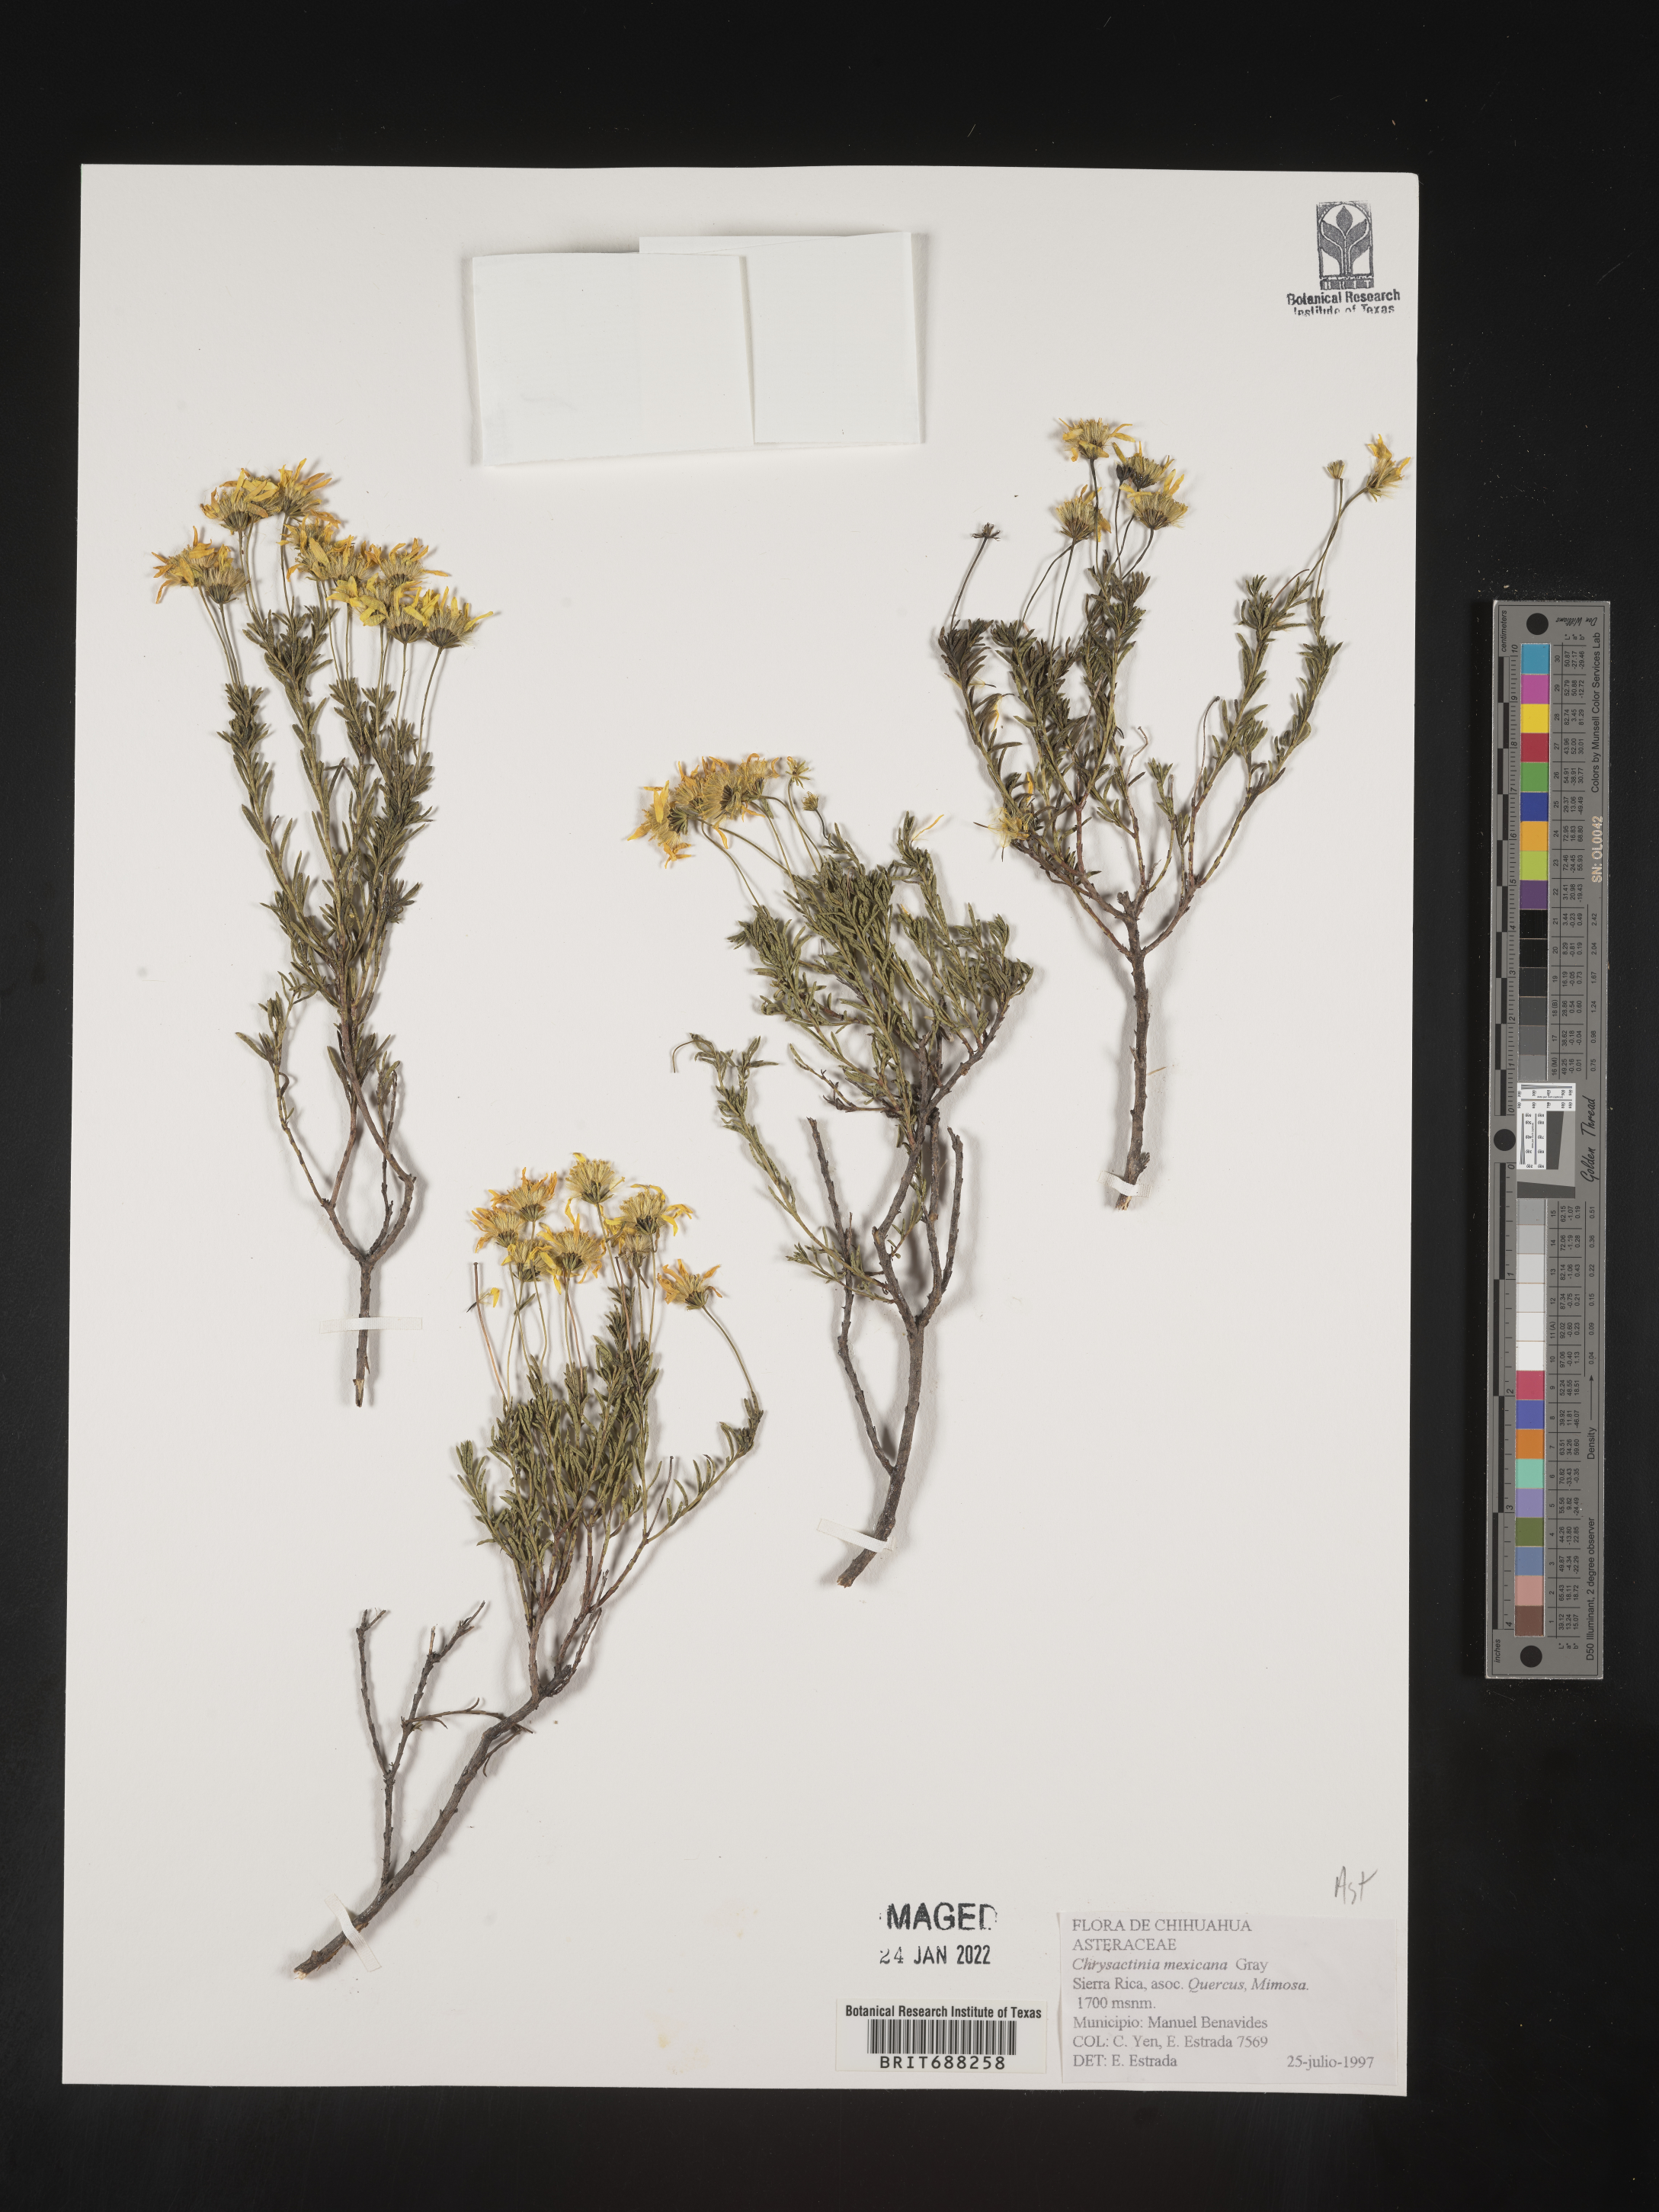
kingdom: Plantae
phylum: Tracheophyta
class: Magnoliopsida
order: Asterales
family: Asteraceae
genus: Chrysactinia
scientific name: Chrysactinia
